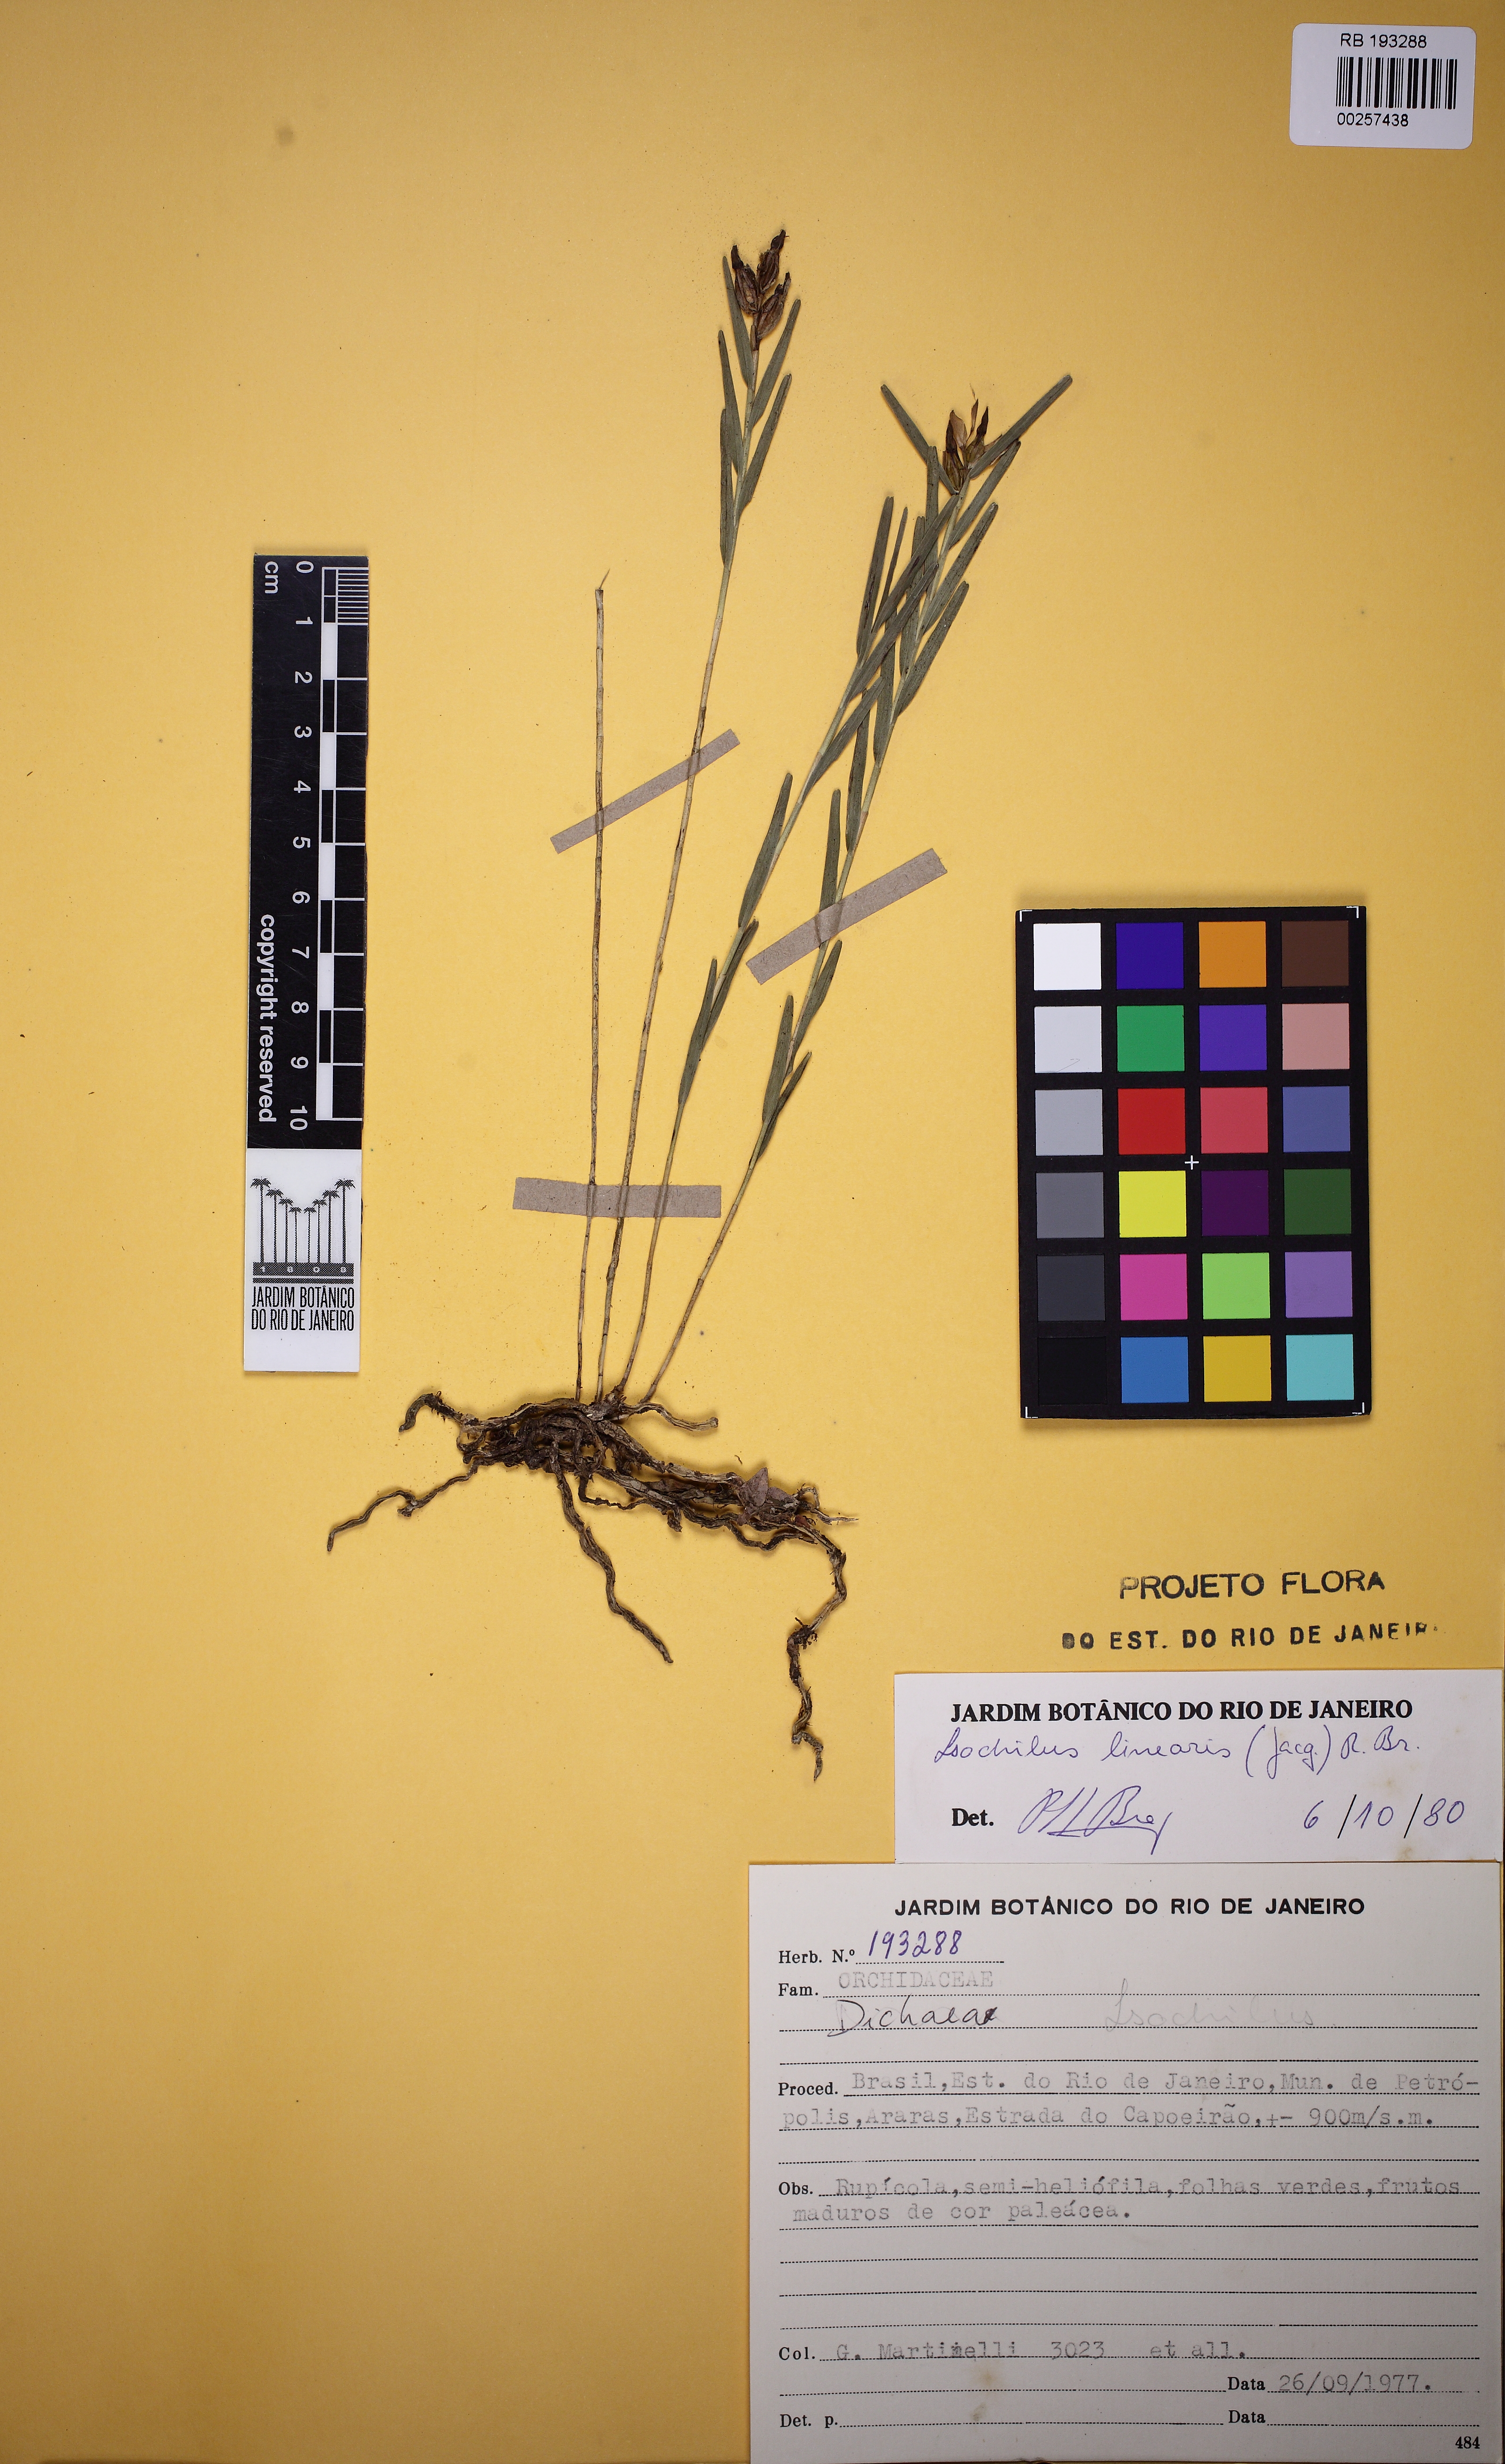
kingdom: Plantae
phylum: Tracheophyta
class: Liliopsida
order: Asparagales
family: Orchidaceae
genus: Isochilus
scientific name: Isochilus linearis
